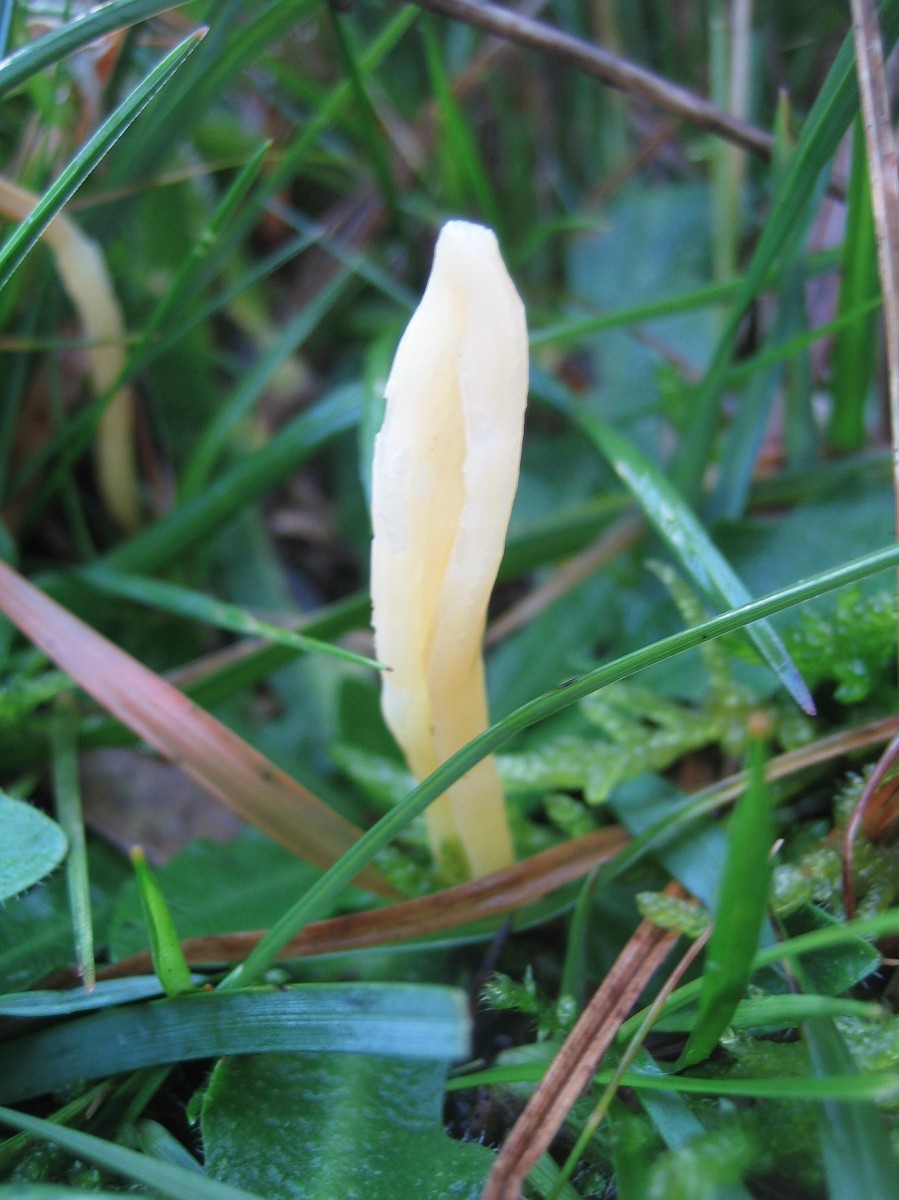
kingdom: Fungi
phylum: Basidiomycota
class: Agaricomycetes
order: Agaricales
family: Clavariaceae
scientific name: Clavariaceae
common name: køllesvampfamilien
